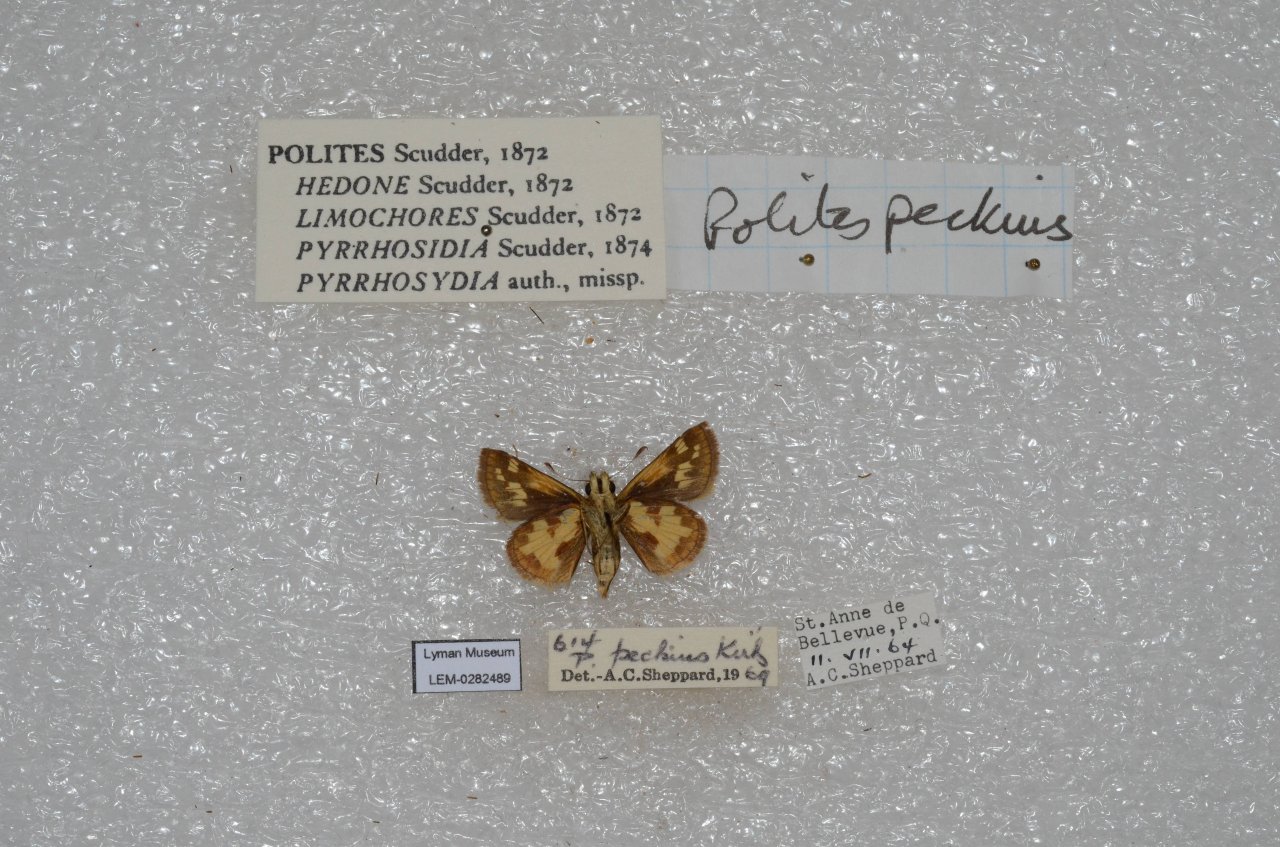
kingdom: Animalia
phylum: Arthropoda
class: Insecta
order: Lepidoptera
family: Hesperiidae
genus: Polites
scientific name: Polites coras
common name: Peck's Skipper
